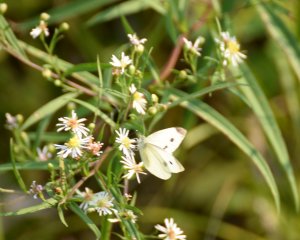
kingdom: Animalia
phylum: Arthropoda
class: Insecta
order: Lepidoptera
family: Pieridae
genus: Pieris
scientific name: Pieris rapae
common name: Cabbage White
